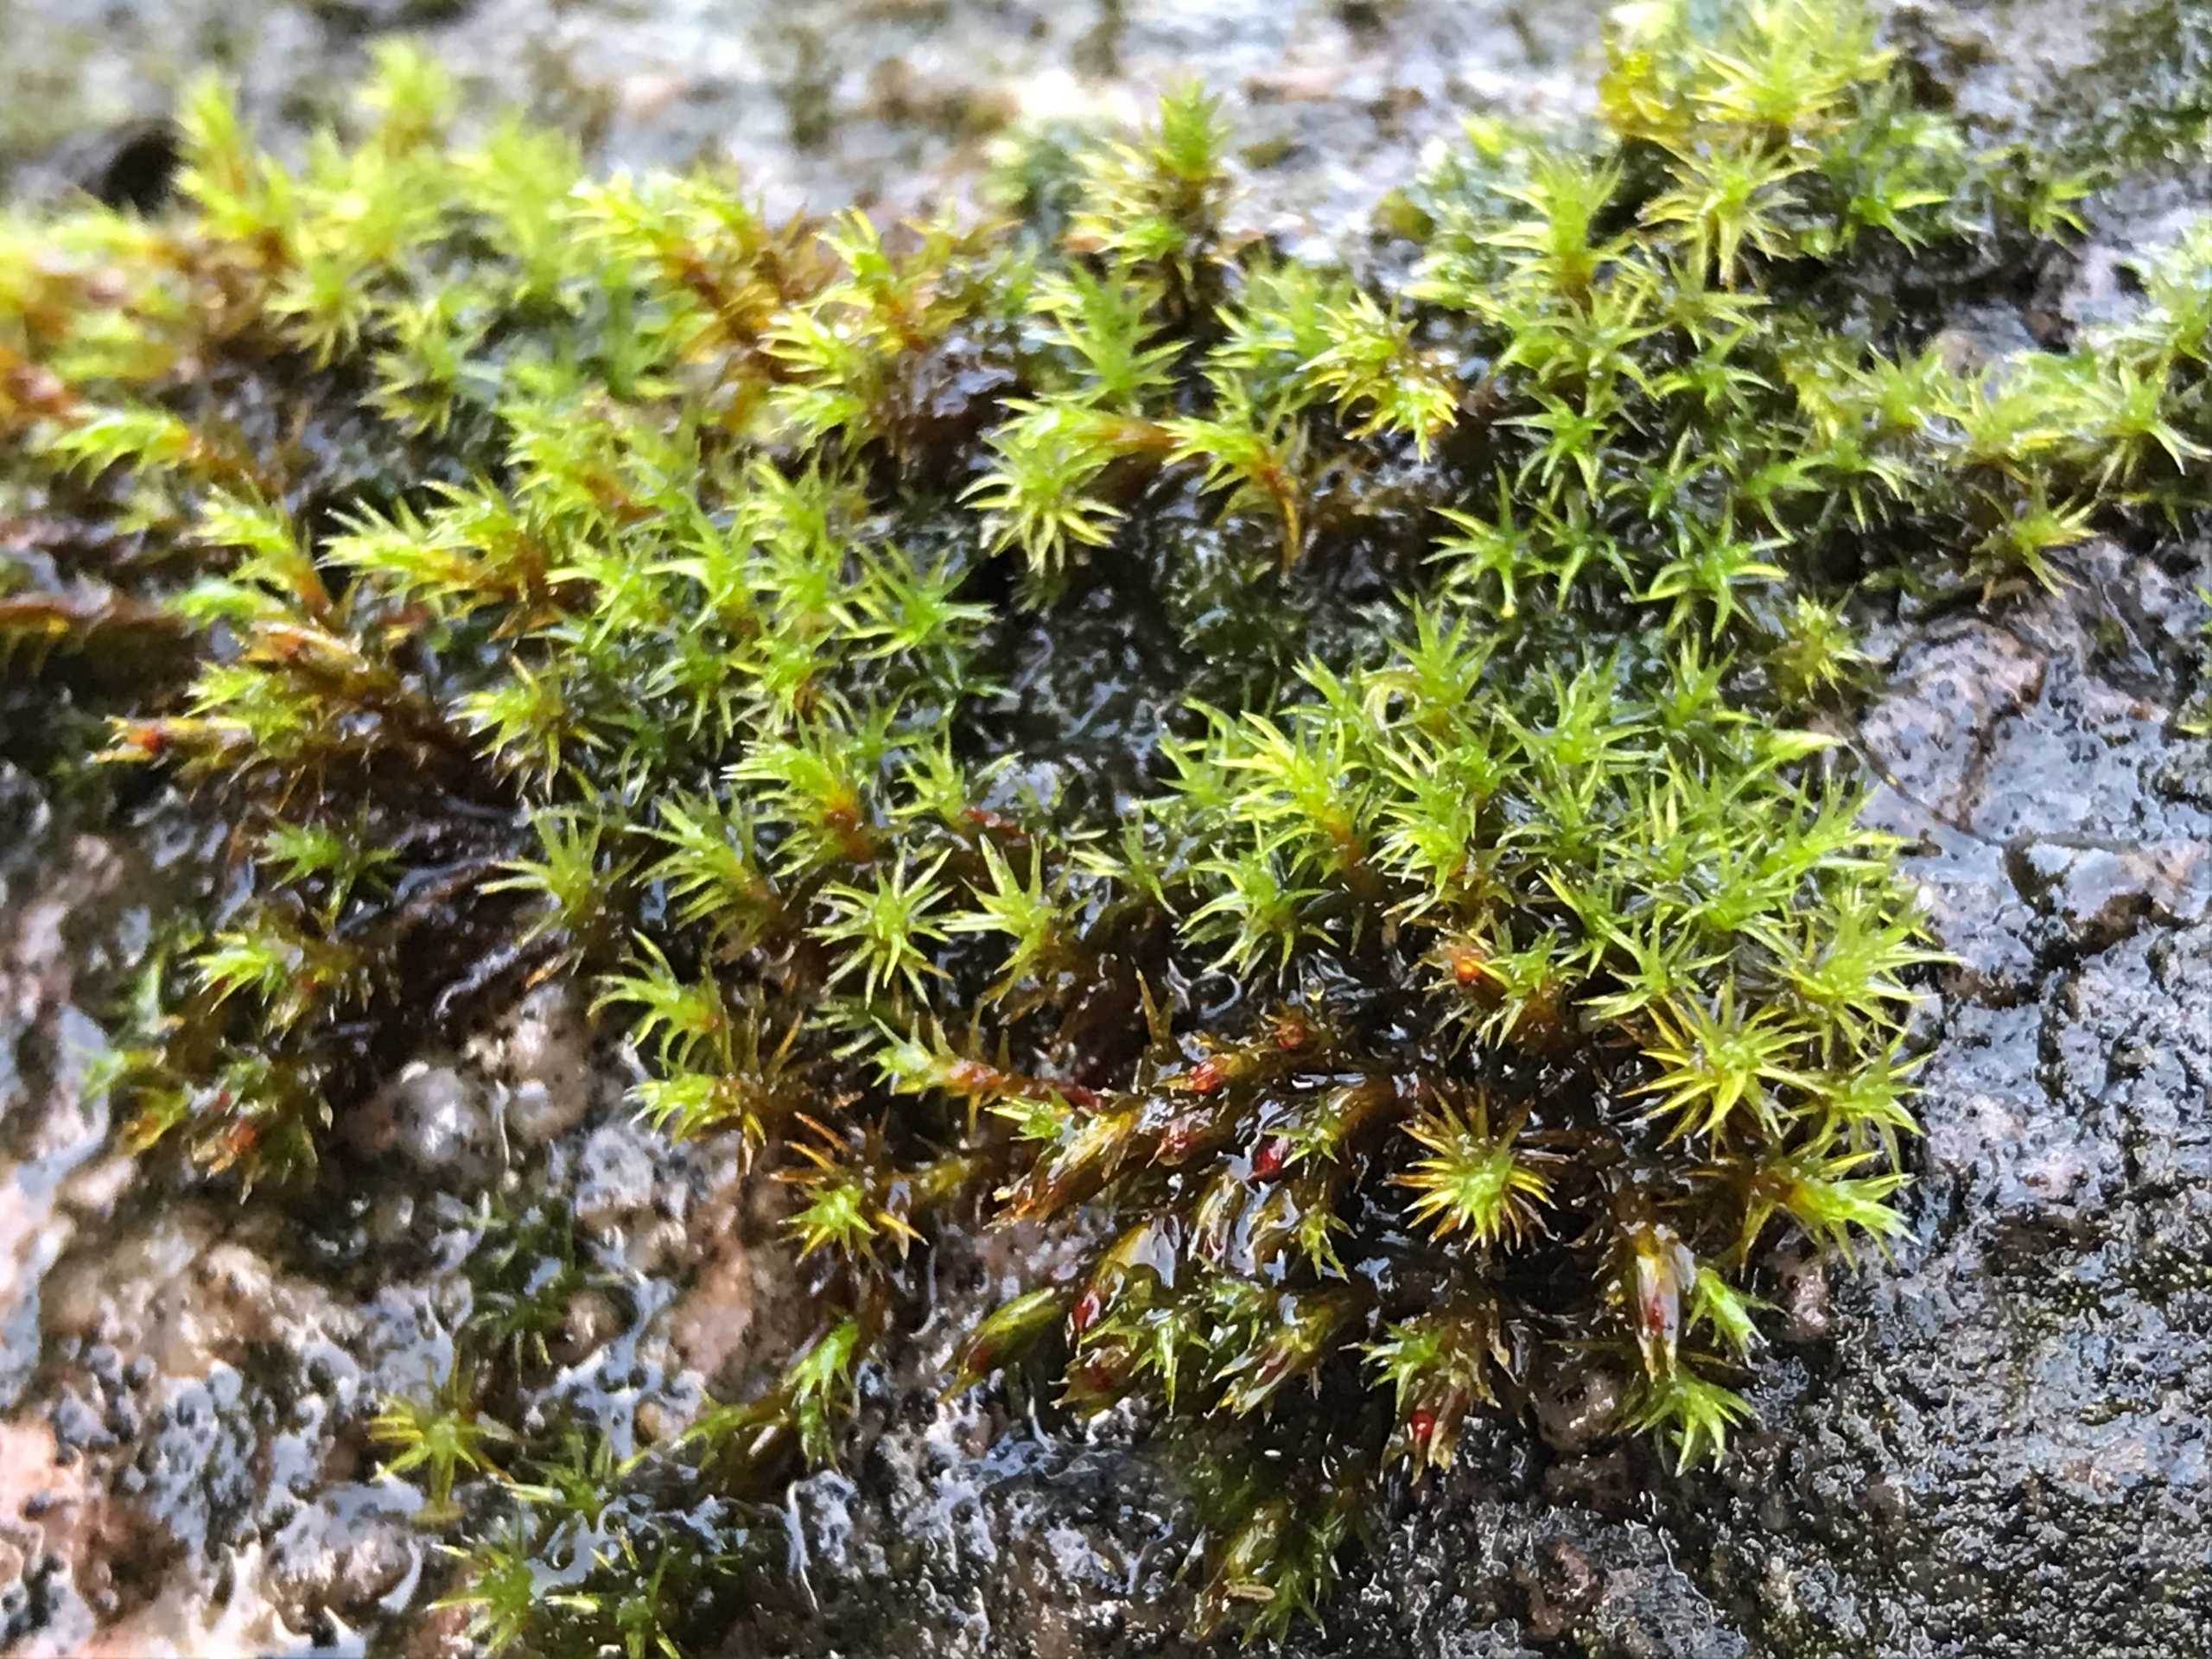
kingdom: Plantae
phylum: Bryophyta
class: Bryopsida
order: Grimmiales
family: Grimmiaceae
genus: Schistidium
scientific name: Schistidium
